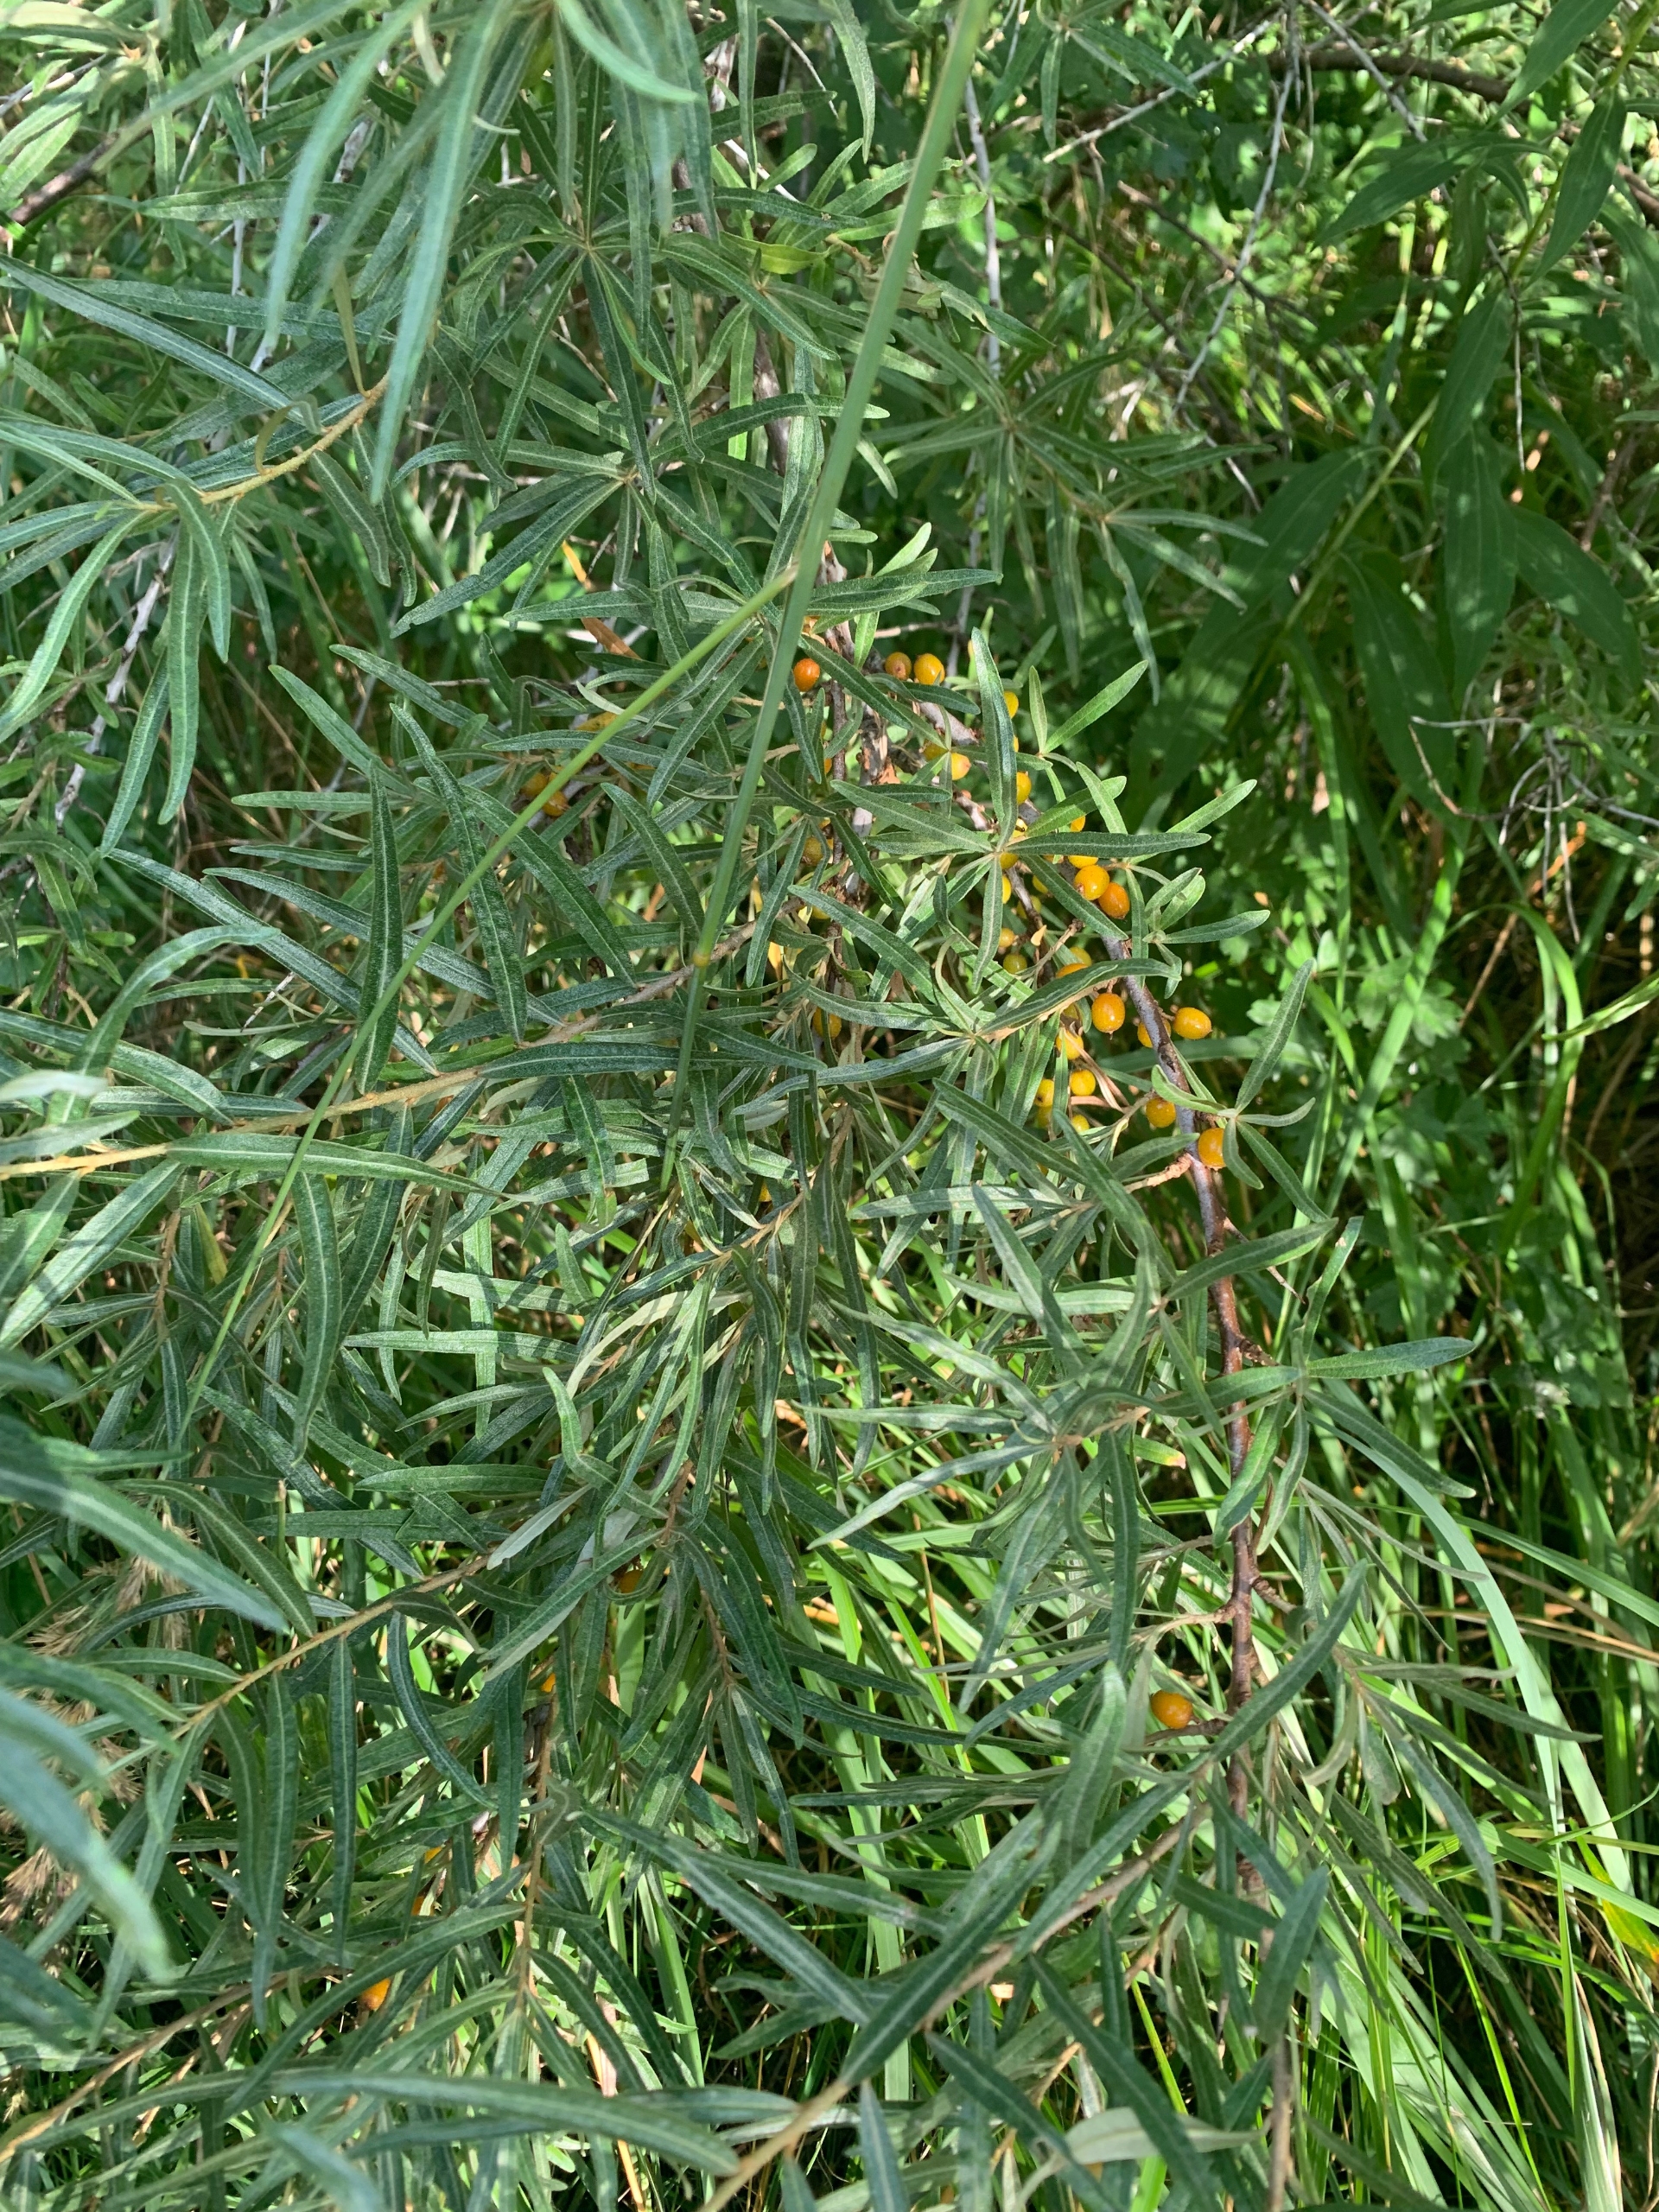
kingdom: Plantae
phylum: Tracheophyta
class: Magnoliopsida
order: Rosales
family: Elaeagnaceae
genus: Hippophae
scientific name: Hippophae rhamnoides
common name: Havtorn
